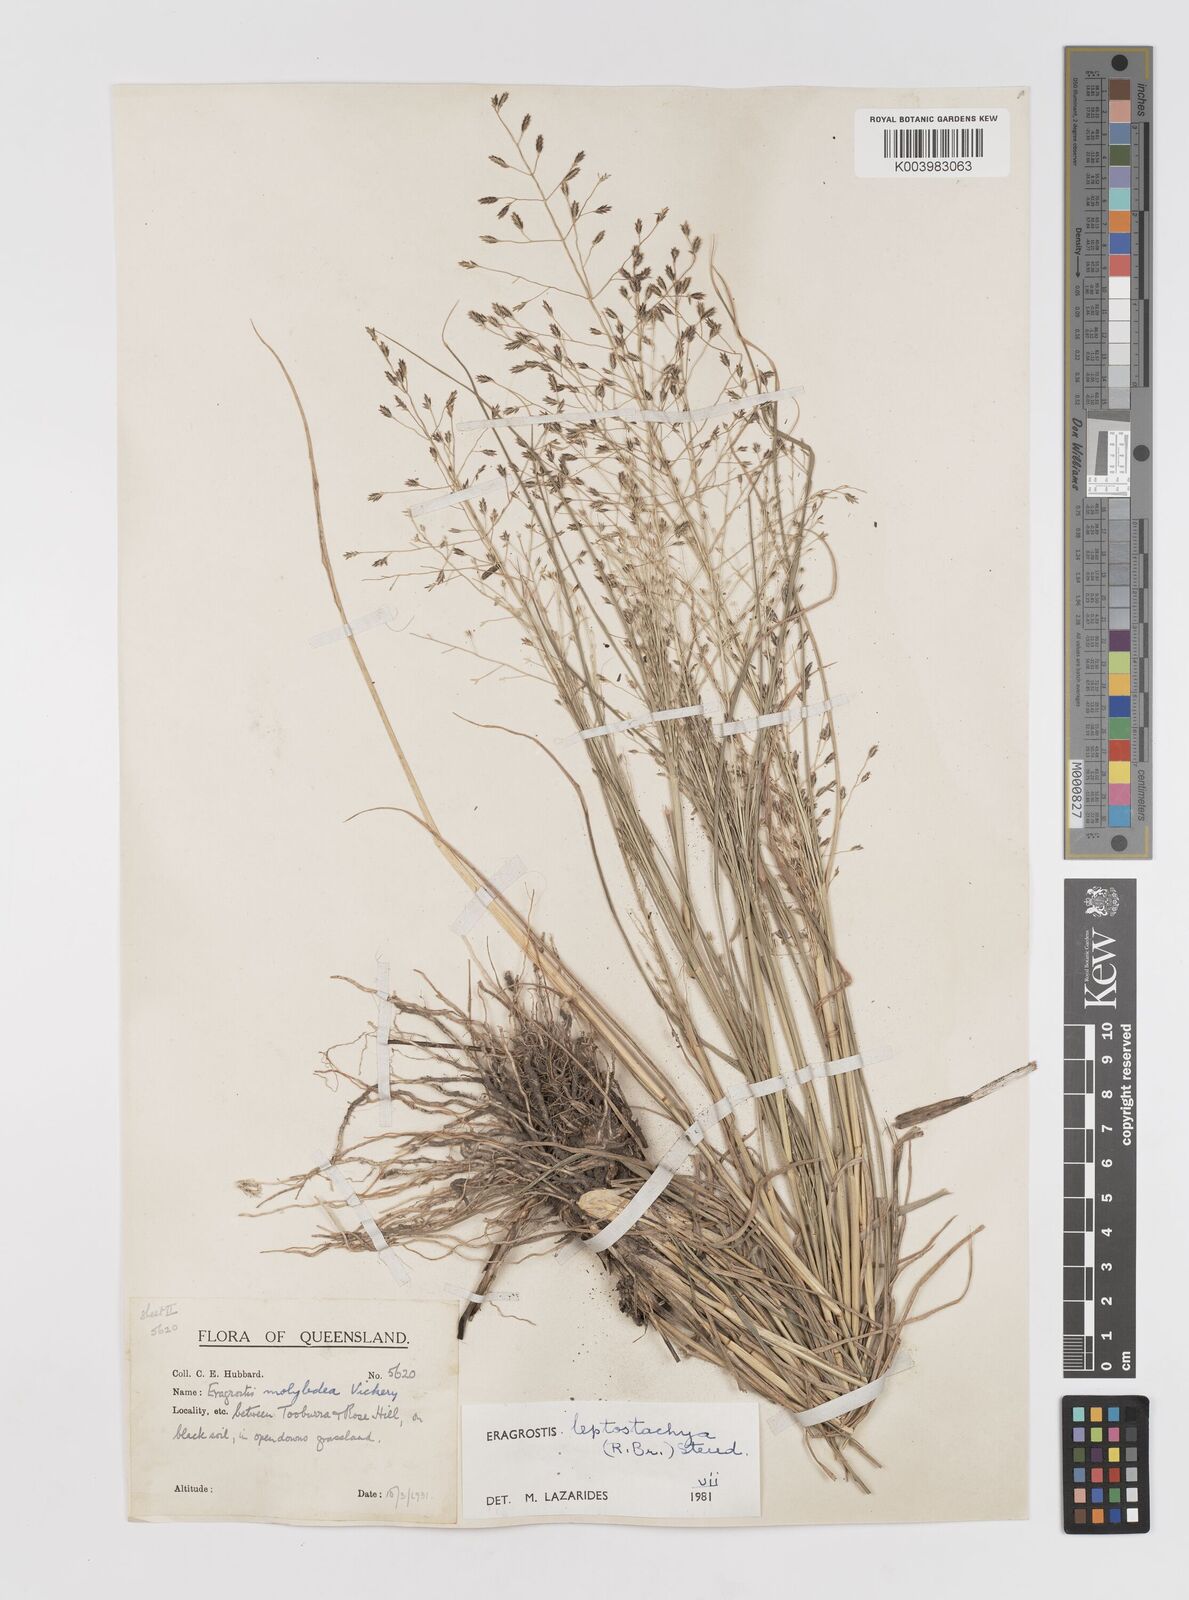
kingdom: Plantae
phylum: Tracheophyta
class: Liliopsida
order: Poales
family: Poaceae
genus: Eragrostis
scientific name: Eragrostis leptostachya
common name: Australian lovegrass
